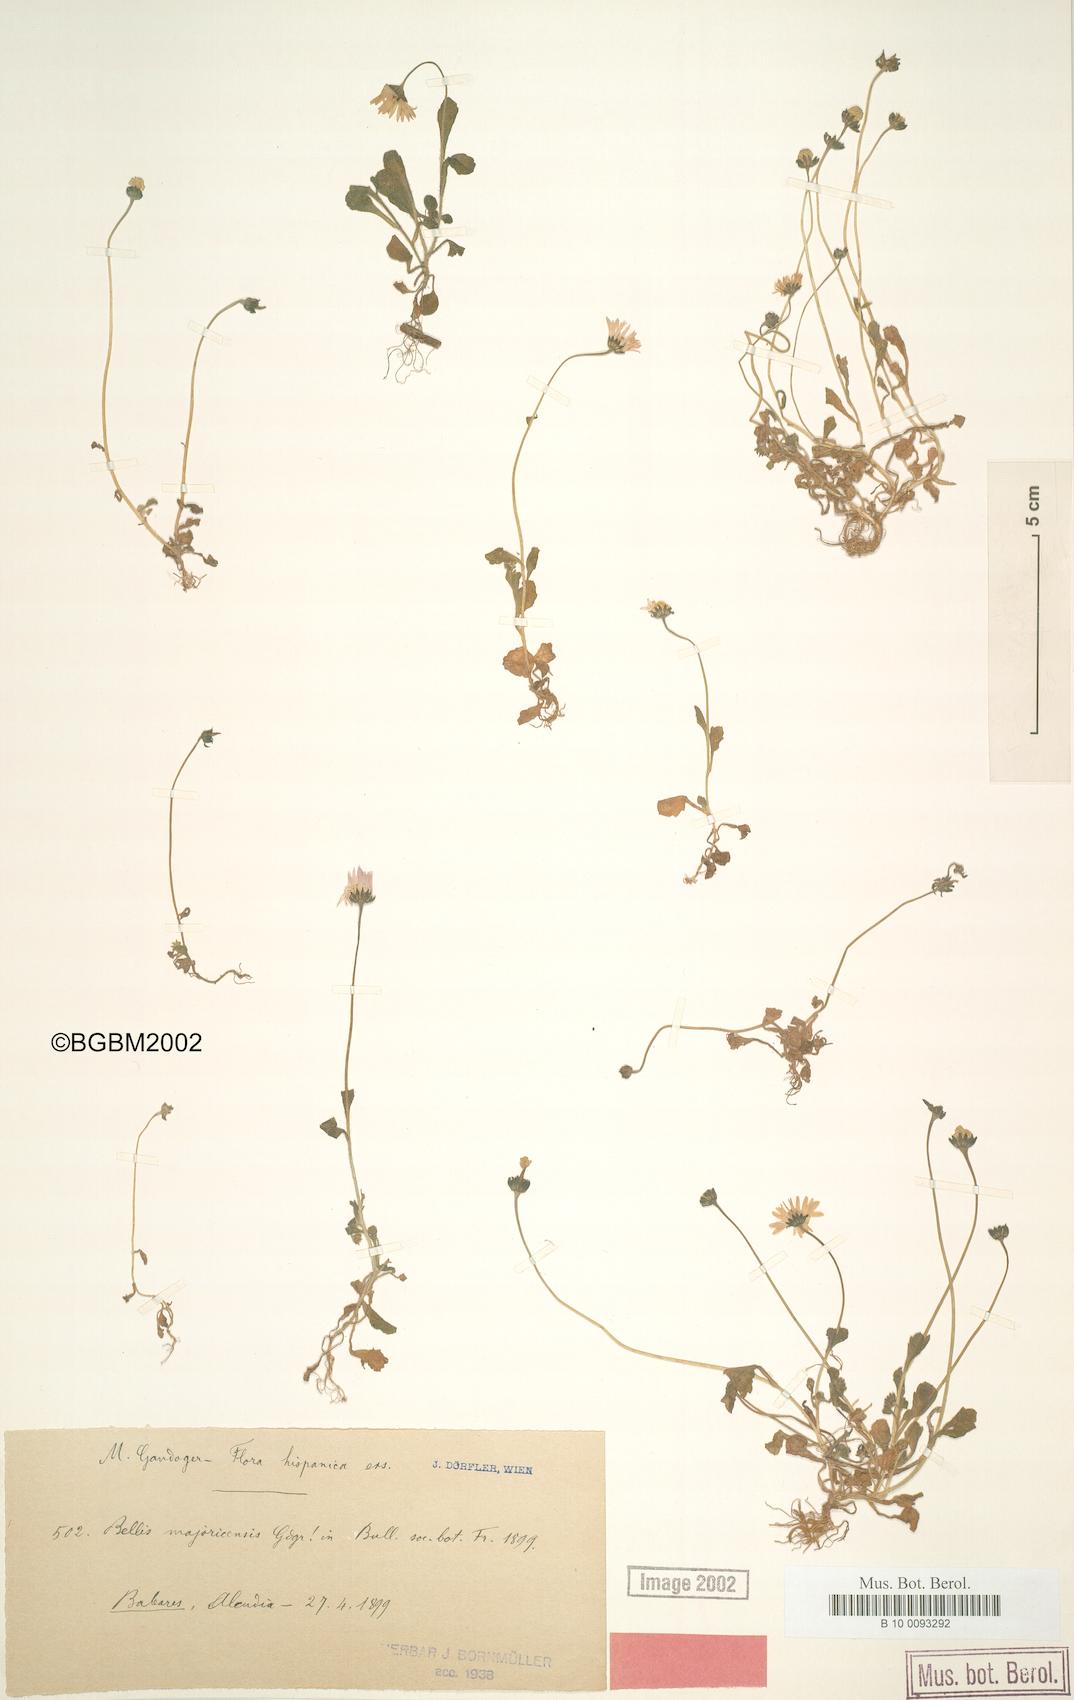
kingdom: Plantae
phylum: Tracheophyta
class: Magnoliopsida
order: Asterales
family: Asteraceae
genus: Bellis
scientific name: Bellis annua
